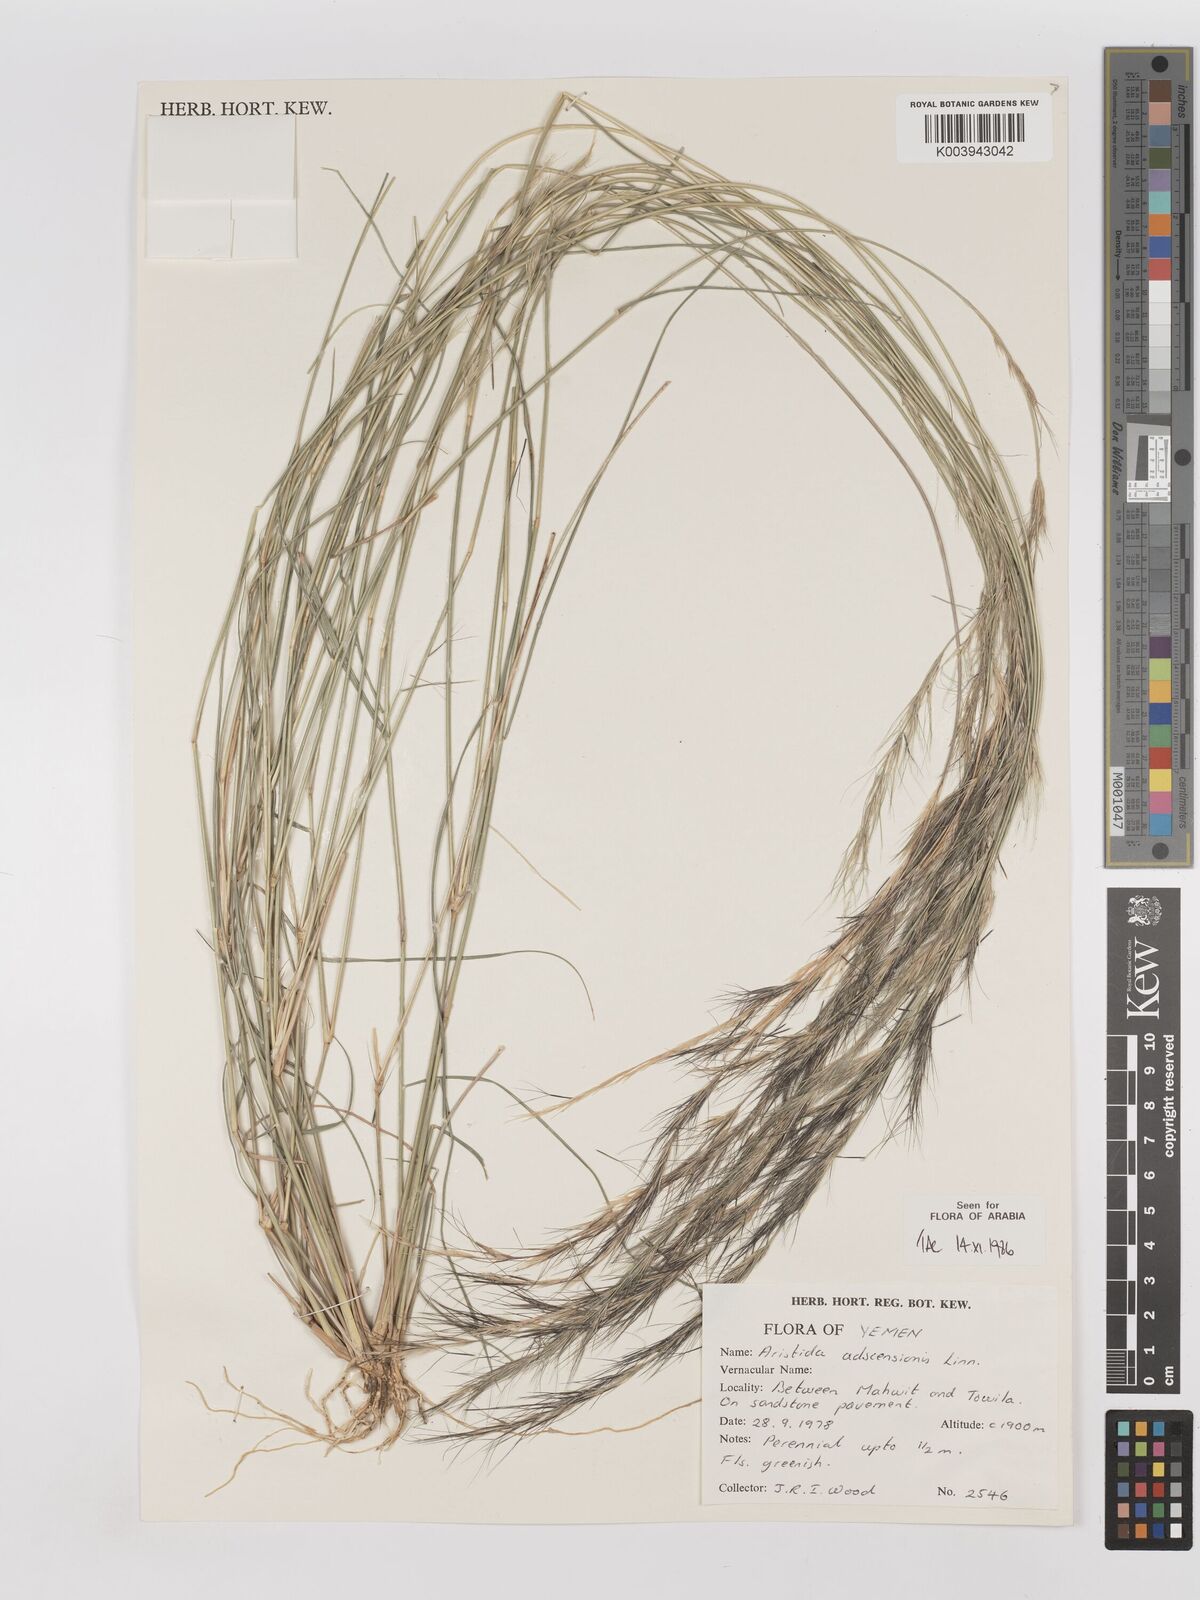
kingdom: Plantae
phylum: Tracheophyta
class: Liliopsida
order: Poales
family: Poaceae
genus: Aristida
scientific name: Aristida adscensionis
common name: Sixweeks threeawn
